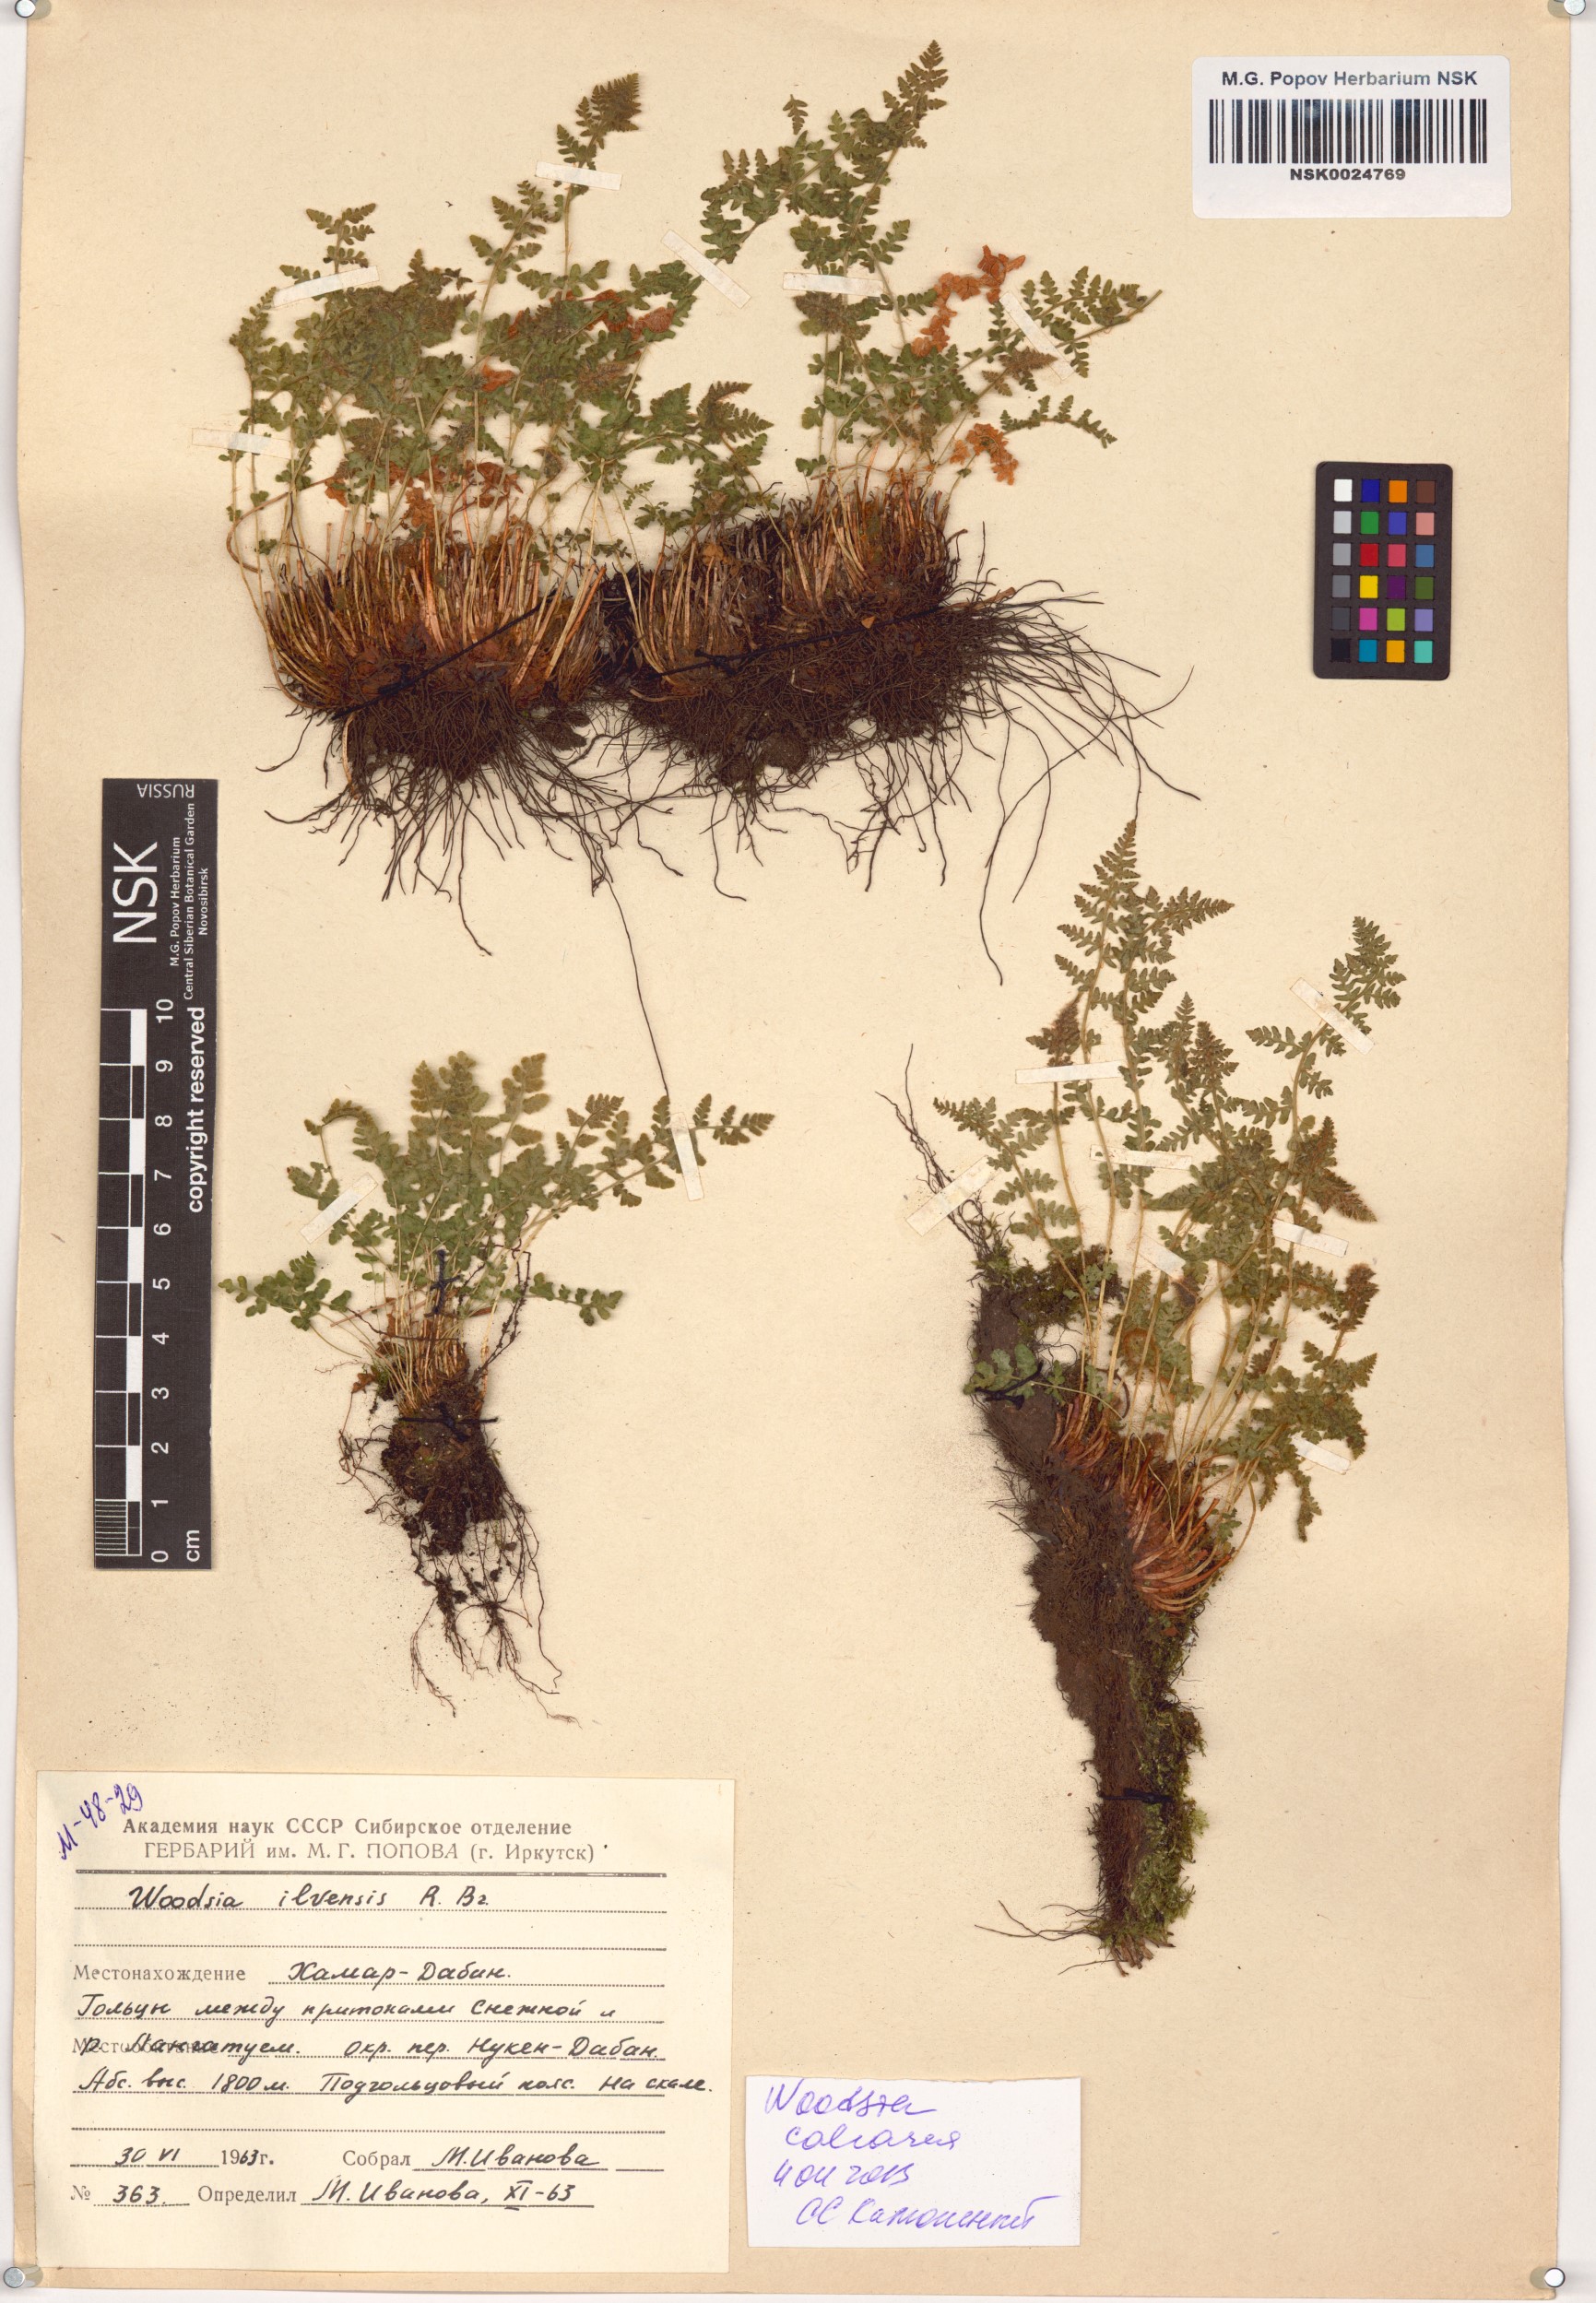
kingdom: Plantae
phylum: Tracheophyta
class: Polypodiopsida
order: Polypodiales
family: Woodsiaceae
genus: Woodsia
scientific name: Woodsia calcarea
